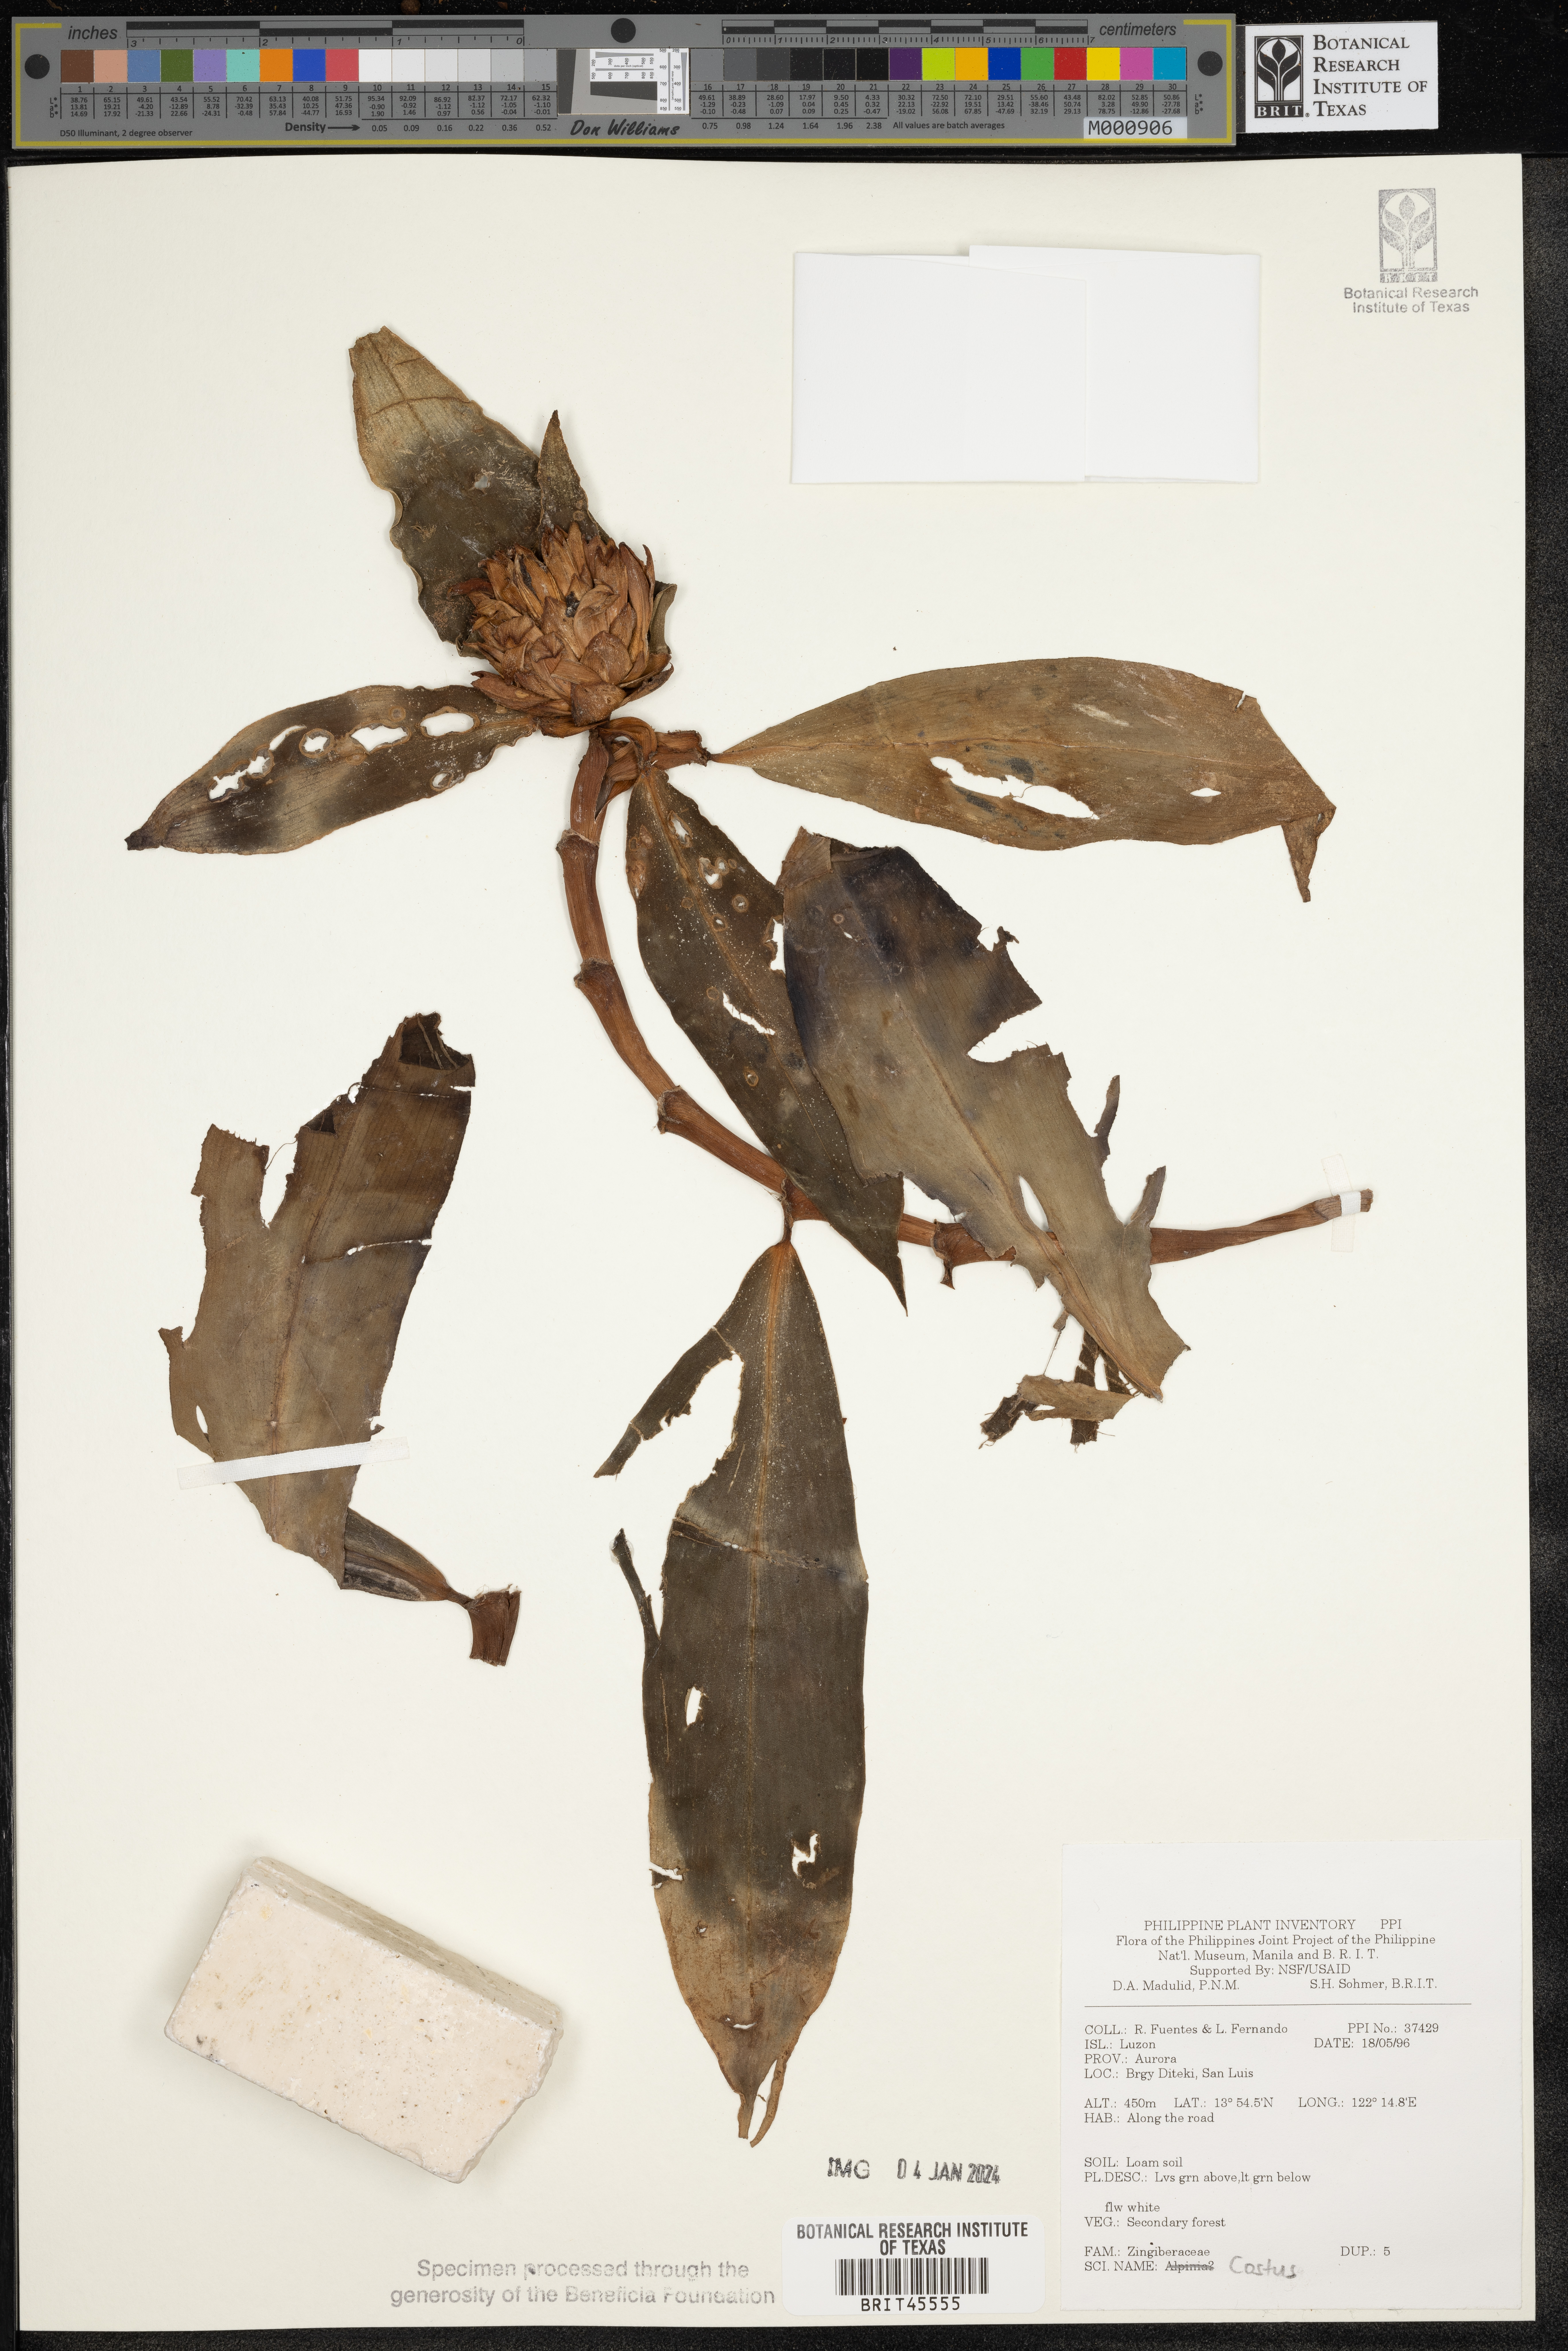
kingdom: Plantae
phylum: Tracheophyta
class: Liliopsida
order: Zingiberales
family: Costaceae
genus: Costus
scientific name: Costus
